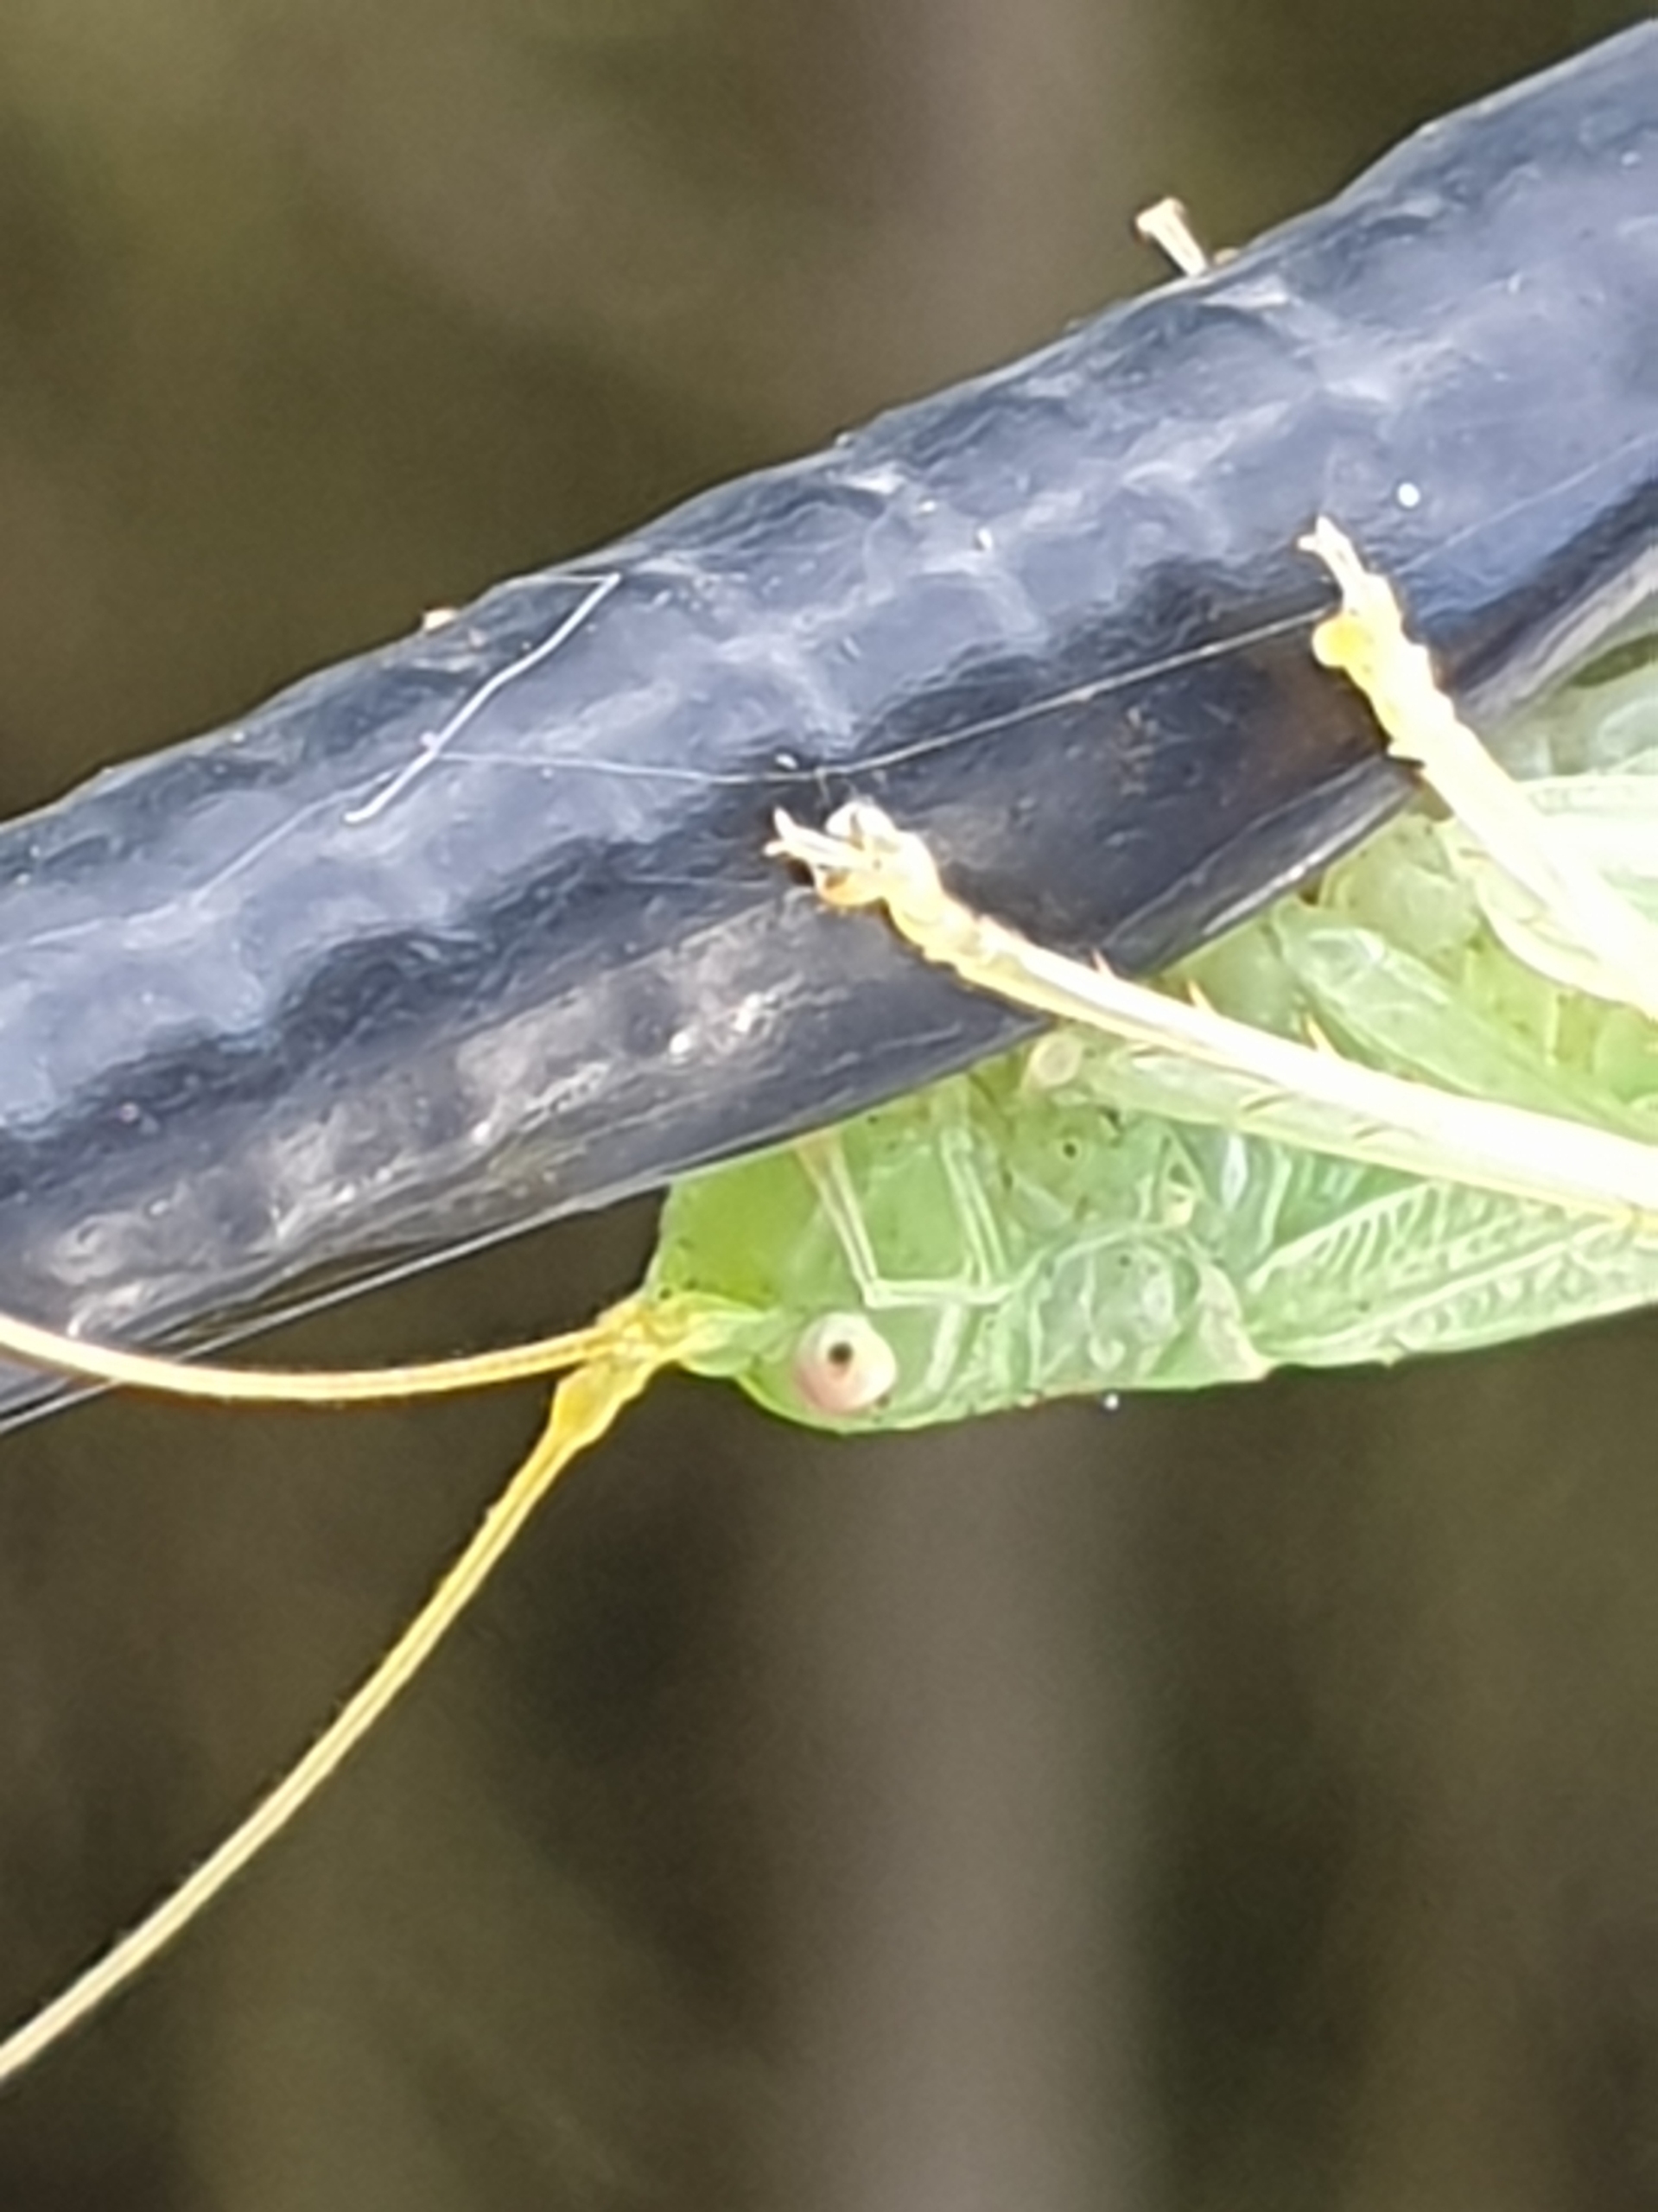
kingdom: Animalia
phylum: Arthropoda
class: Insecta
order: Orthoptera
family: Tettigoniidae
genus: Meconema
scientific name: Meconema thalassinum
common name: Egegræshoppe
